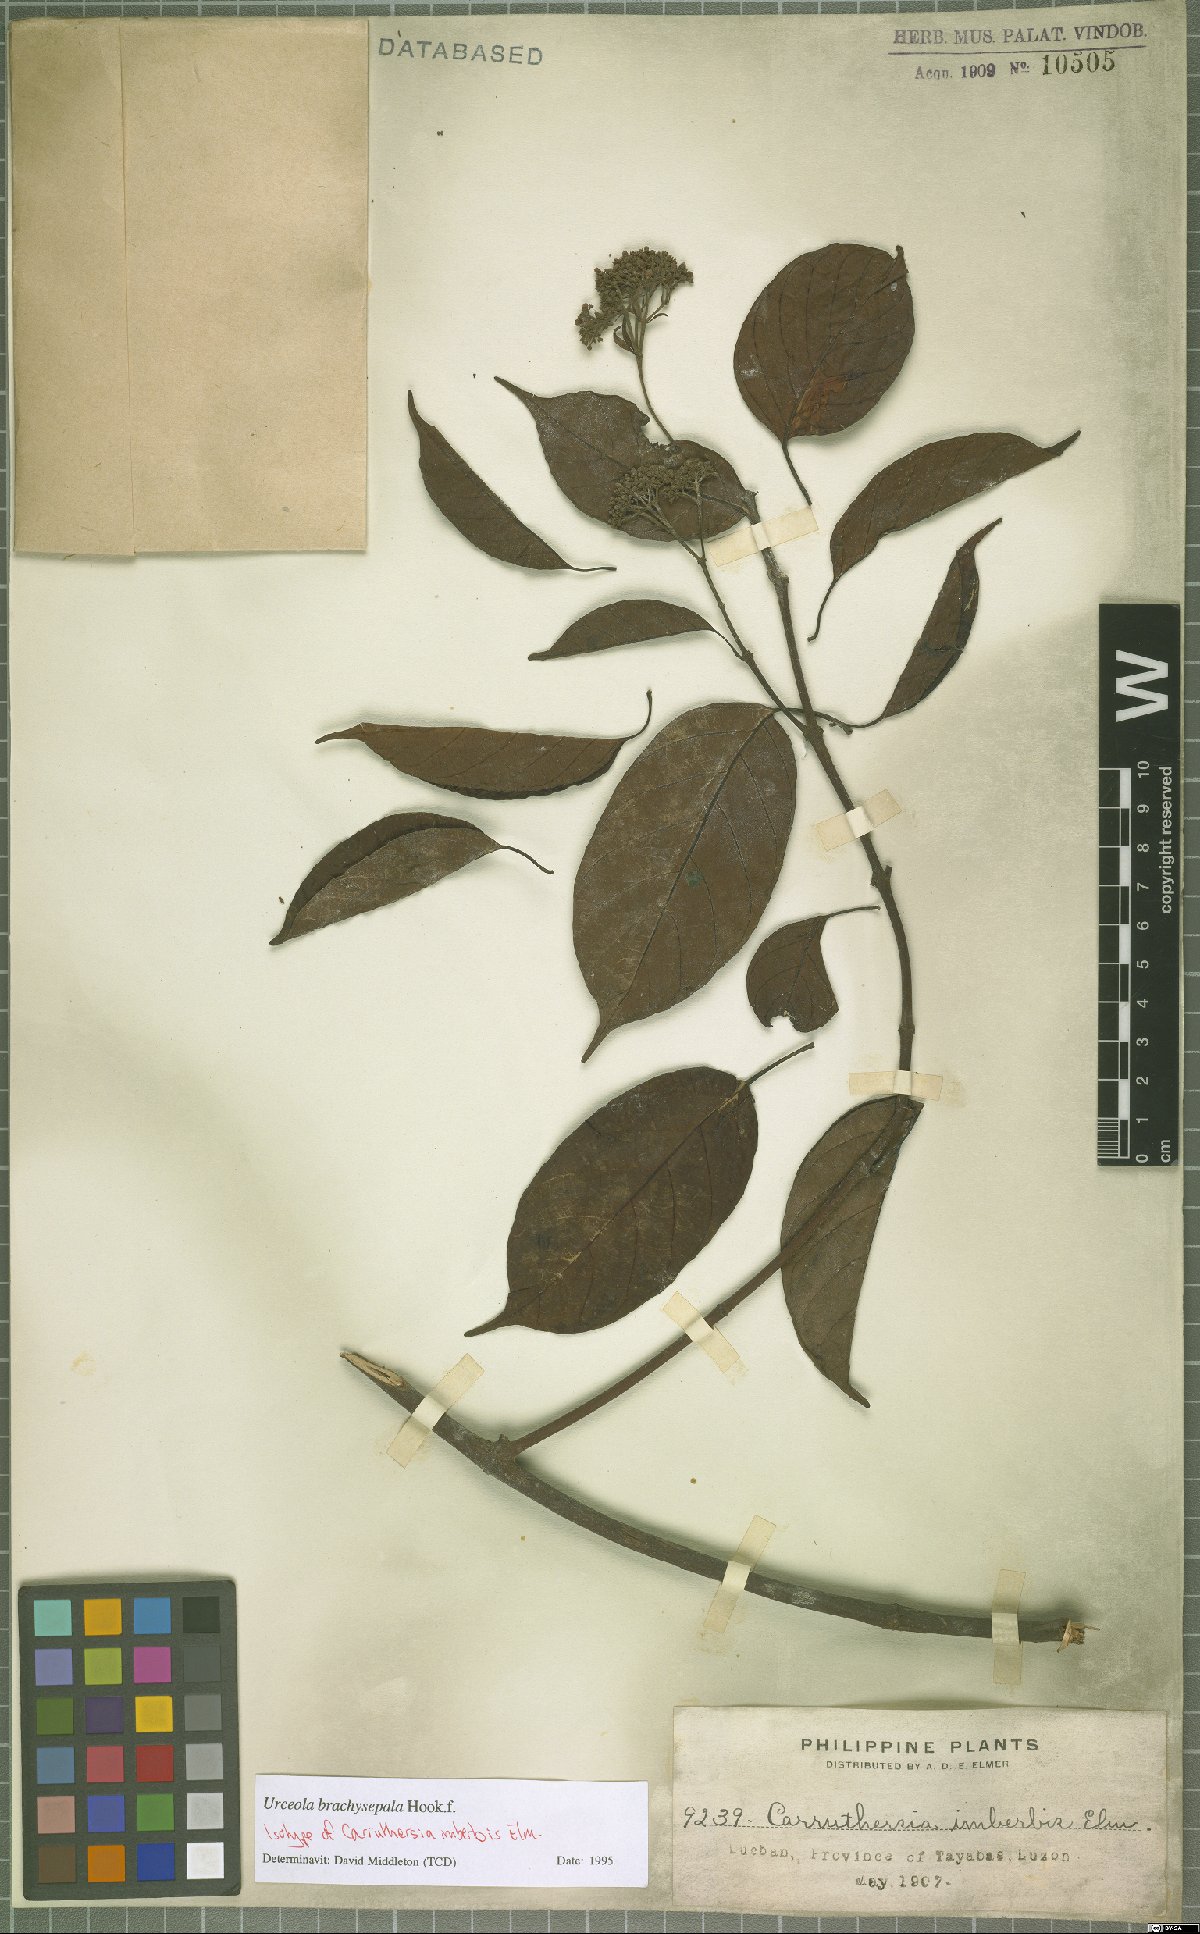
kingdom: Plantae
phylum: Tracheophyta
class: Magnoliopsida
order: Gentianales
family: Apocynaceae
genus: Urceola
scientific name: Urceola brachysepala
